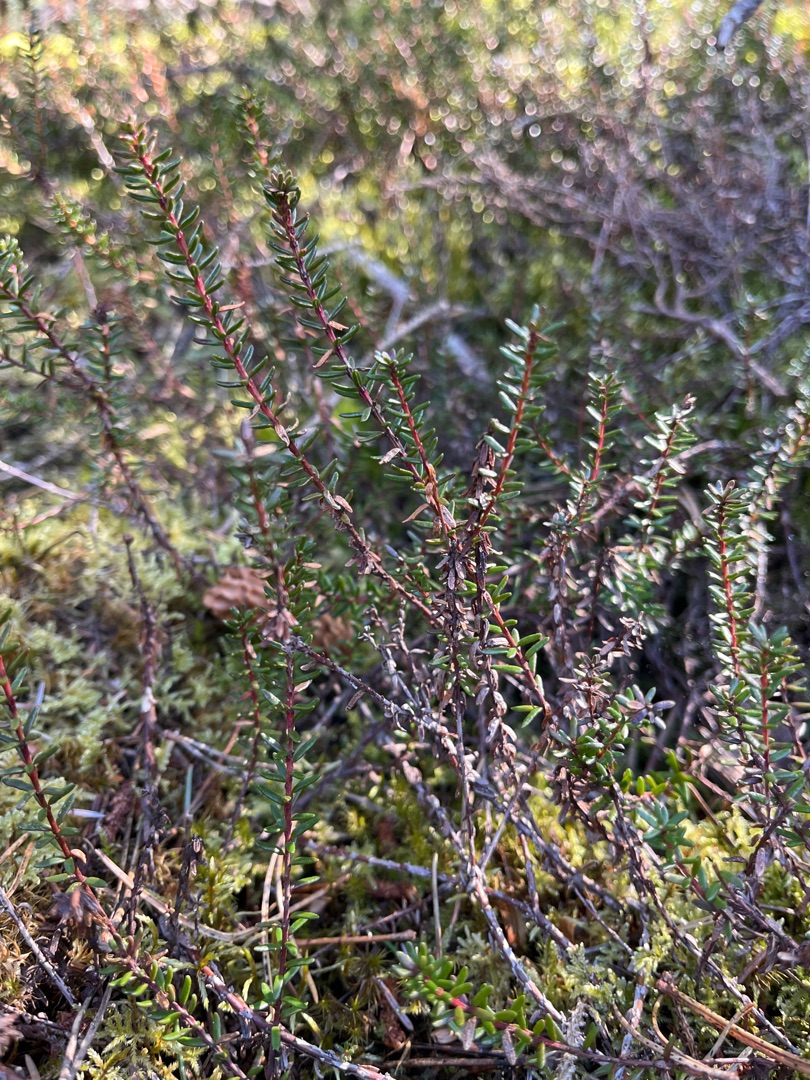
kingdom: Plantae
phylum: Tracheophyta
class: Magnoliopsida
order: Ericales
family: Ericaceae
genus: Empetrum
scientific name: Empetrum nigrum
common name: Revling
